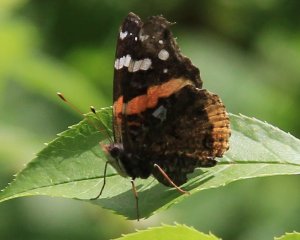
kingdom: Animalia
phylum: Arthropoda
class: Insecta
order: Lepidoptera
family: Nymphalidae
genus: Vanessa
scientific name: Vanessa atalanta
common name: Red Admiral
